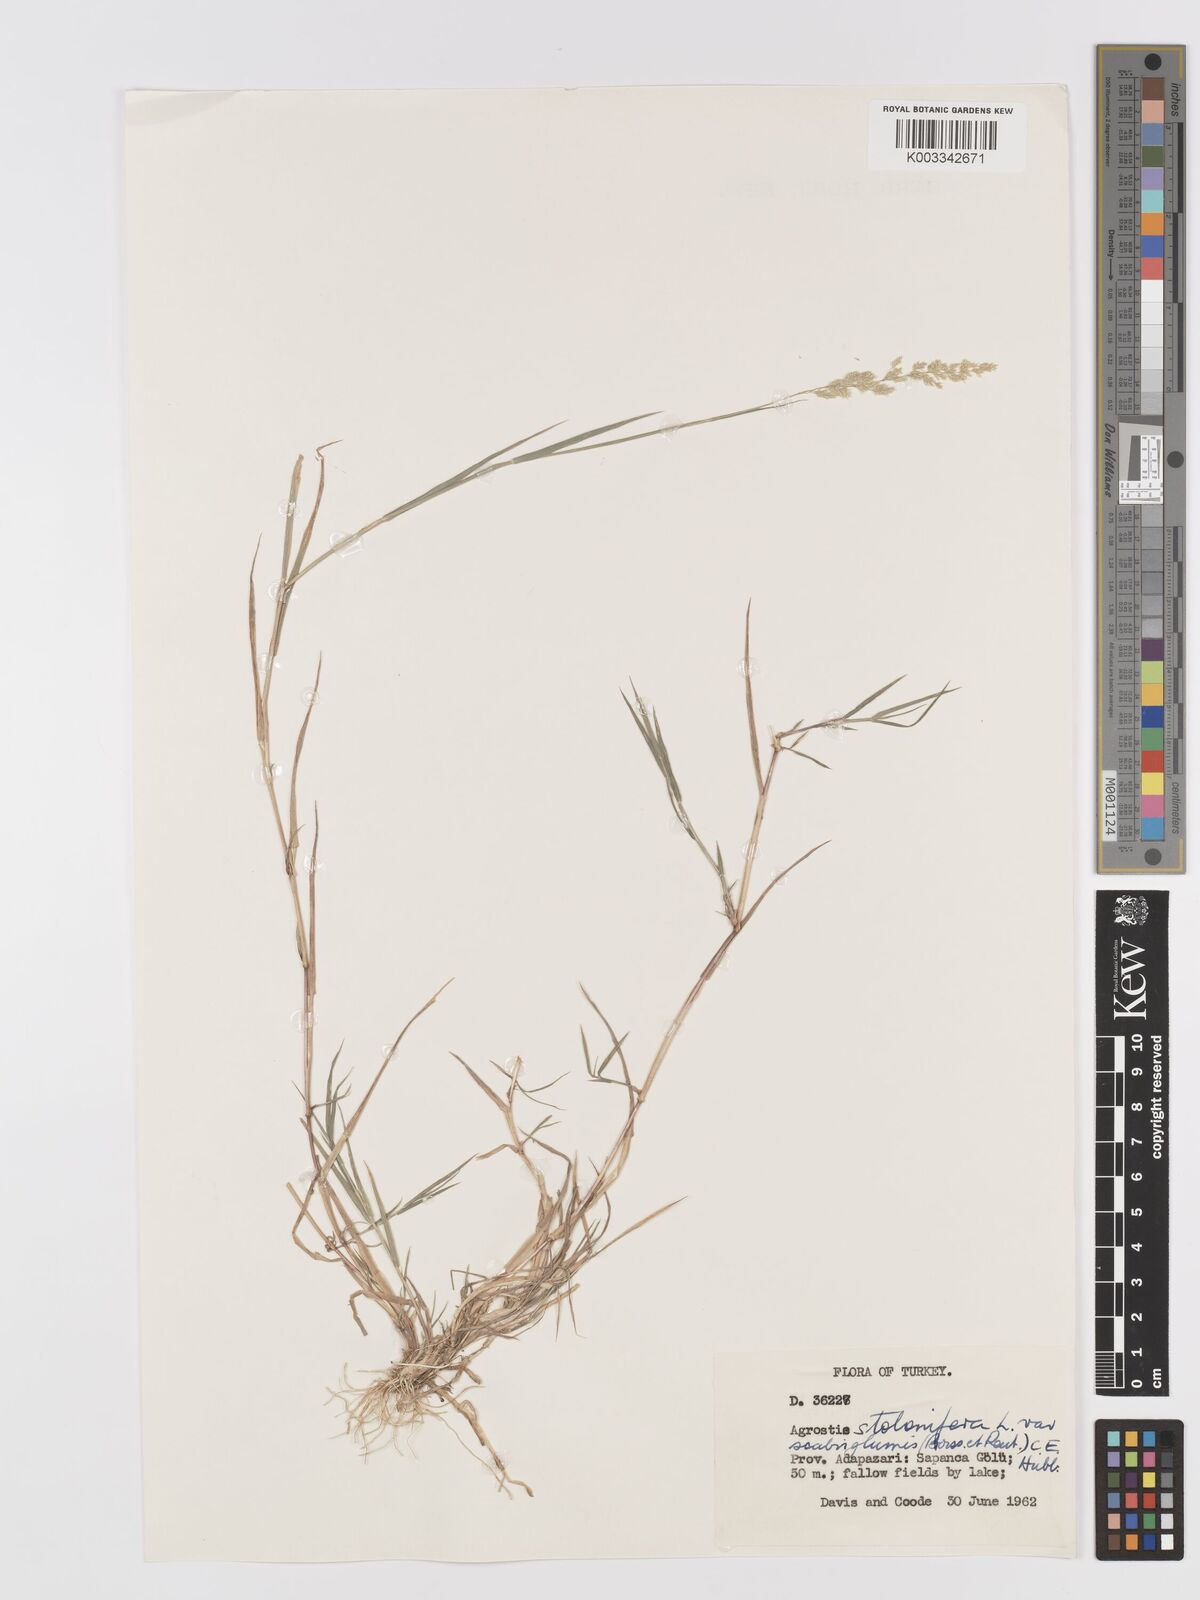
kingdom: Plantae
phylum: Tracheophyta
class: Liliopsida
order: Poales
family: Poaceae
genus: Agrostis
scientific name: Agrostis gigantea
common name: Black bent
